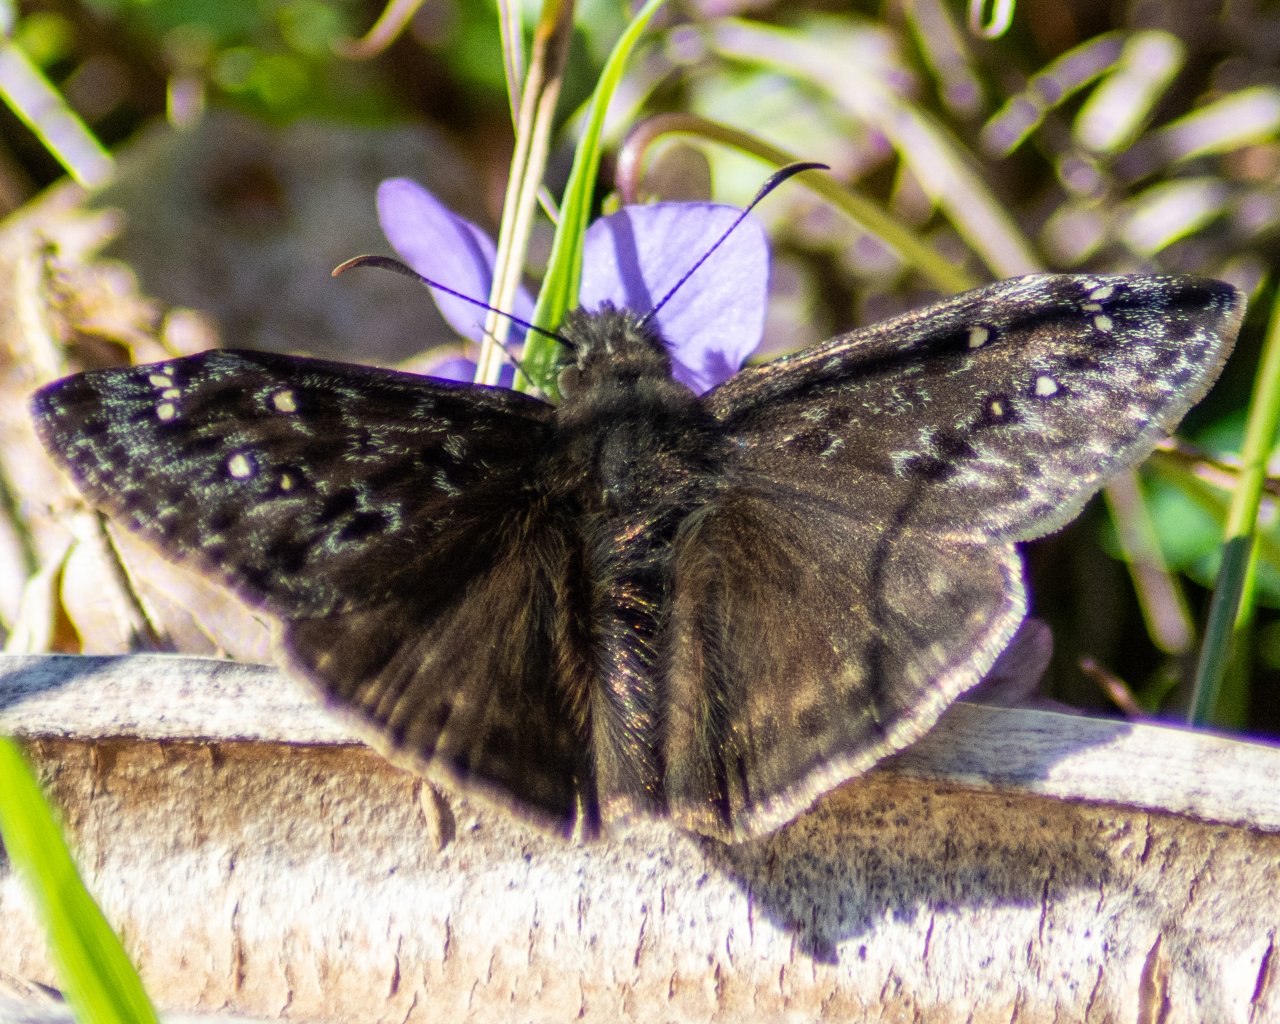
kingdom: Animalia
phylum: Arthropoda
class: Insecta
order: Lepidoptera
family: Hesperiidae
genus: Gesta
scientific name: Gesta
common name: Juvenal's Duskywing
